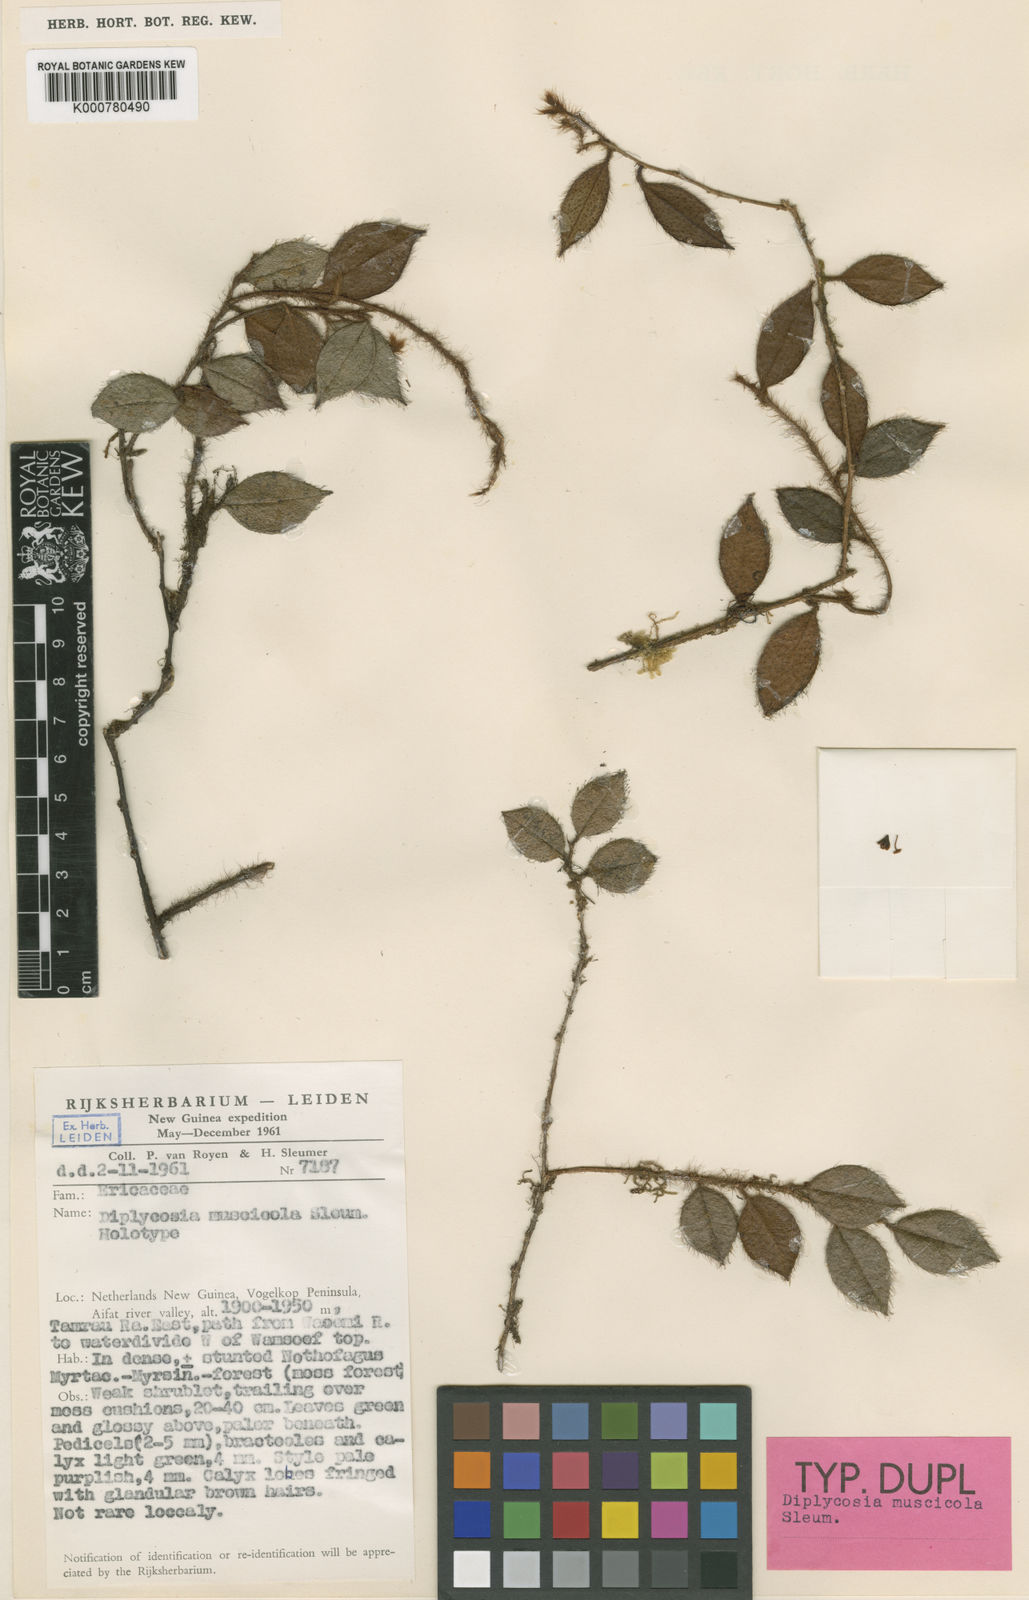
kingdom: Plantae
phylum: Tracheophyta
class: Magnoliopsida
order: Ericales
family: Ericaceae
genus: Gaultheria
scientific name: Gaultheria muscicola
